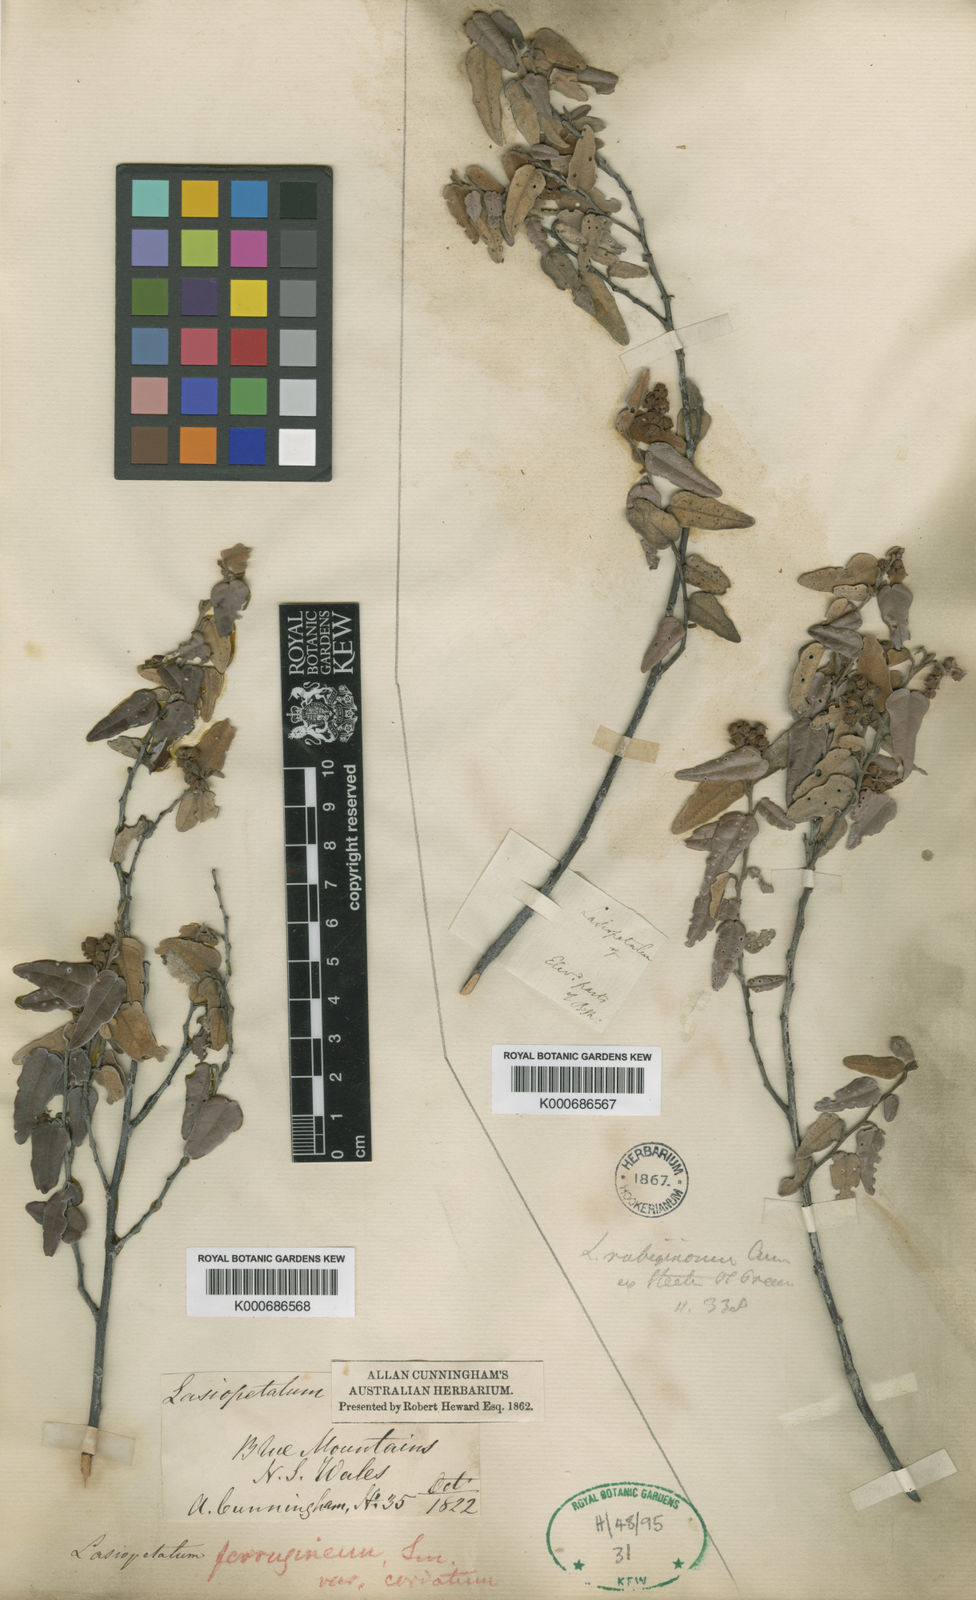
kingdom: Plantae
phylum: Tracheophyta
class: Magnoliopsida
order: Malvales
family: Malvaceae
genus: Lasiopetalum
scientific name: Lasiopetalum ferrugineum
